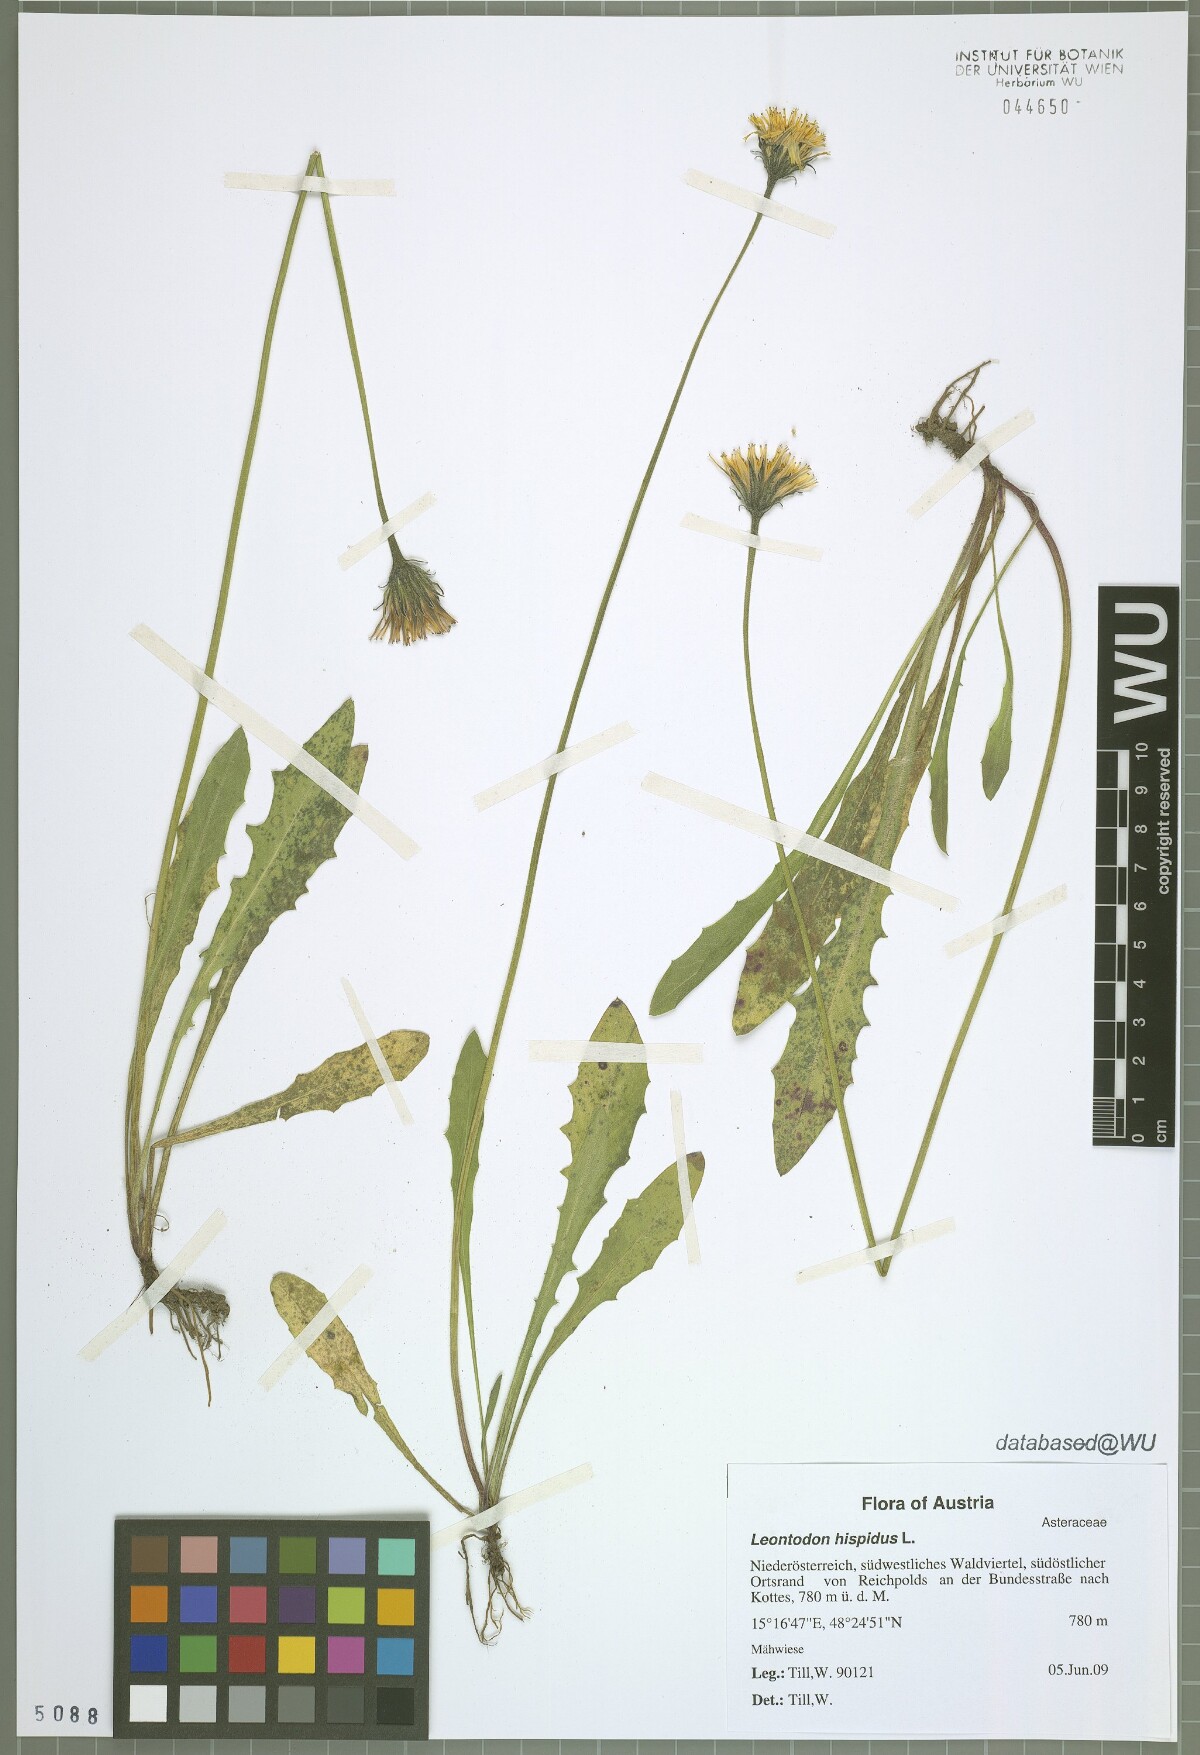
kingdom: Plantae
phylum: Tracheophyta
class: Magnoliopsida
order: Asterales
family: Asteraceae
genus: Leontodon
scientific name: Leontodon hispidus
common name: Rough hawkbit
